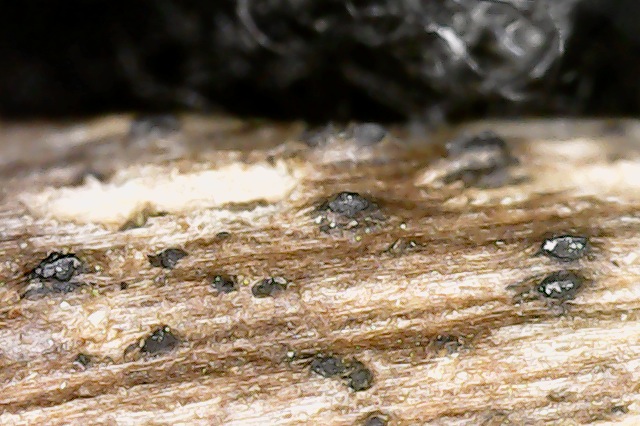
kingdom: Fungi
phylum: Ascomycota
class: Dothideomycetes
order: Pleosporales
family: Lophiostomataceae
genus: Lophiostoma
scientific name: Lophiostoma macrostomum
